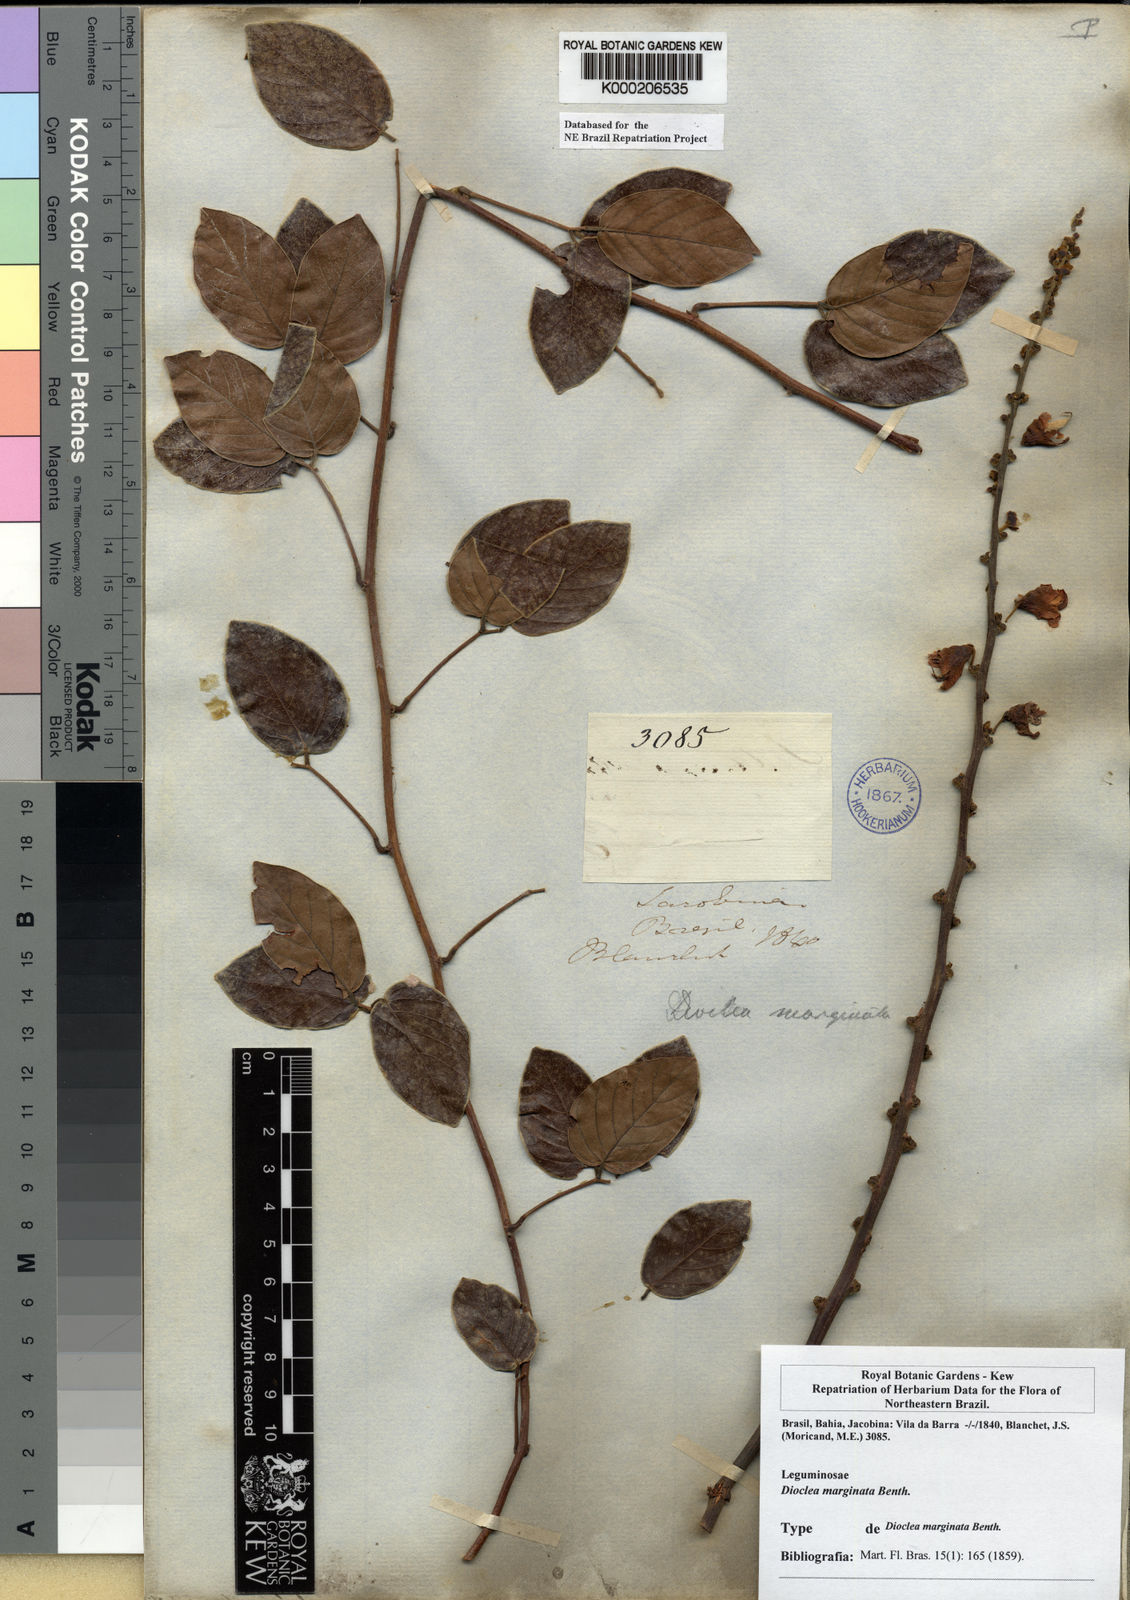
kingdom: Plantae
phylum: Tracheophyta
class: Magnoliopsida
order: Fabales
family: Fabaceae
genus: Macropsychanthus
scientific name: Macropsychanthus marginatus
